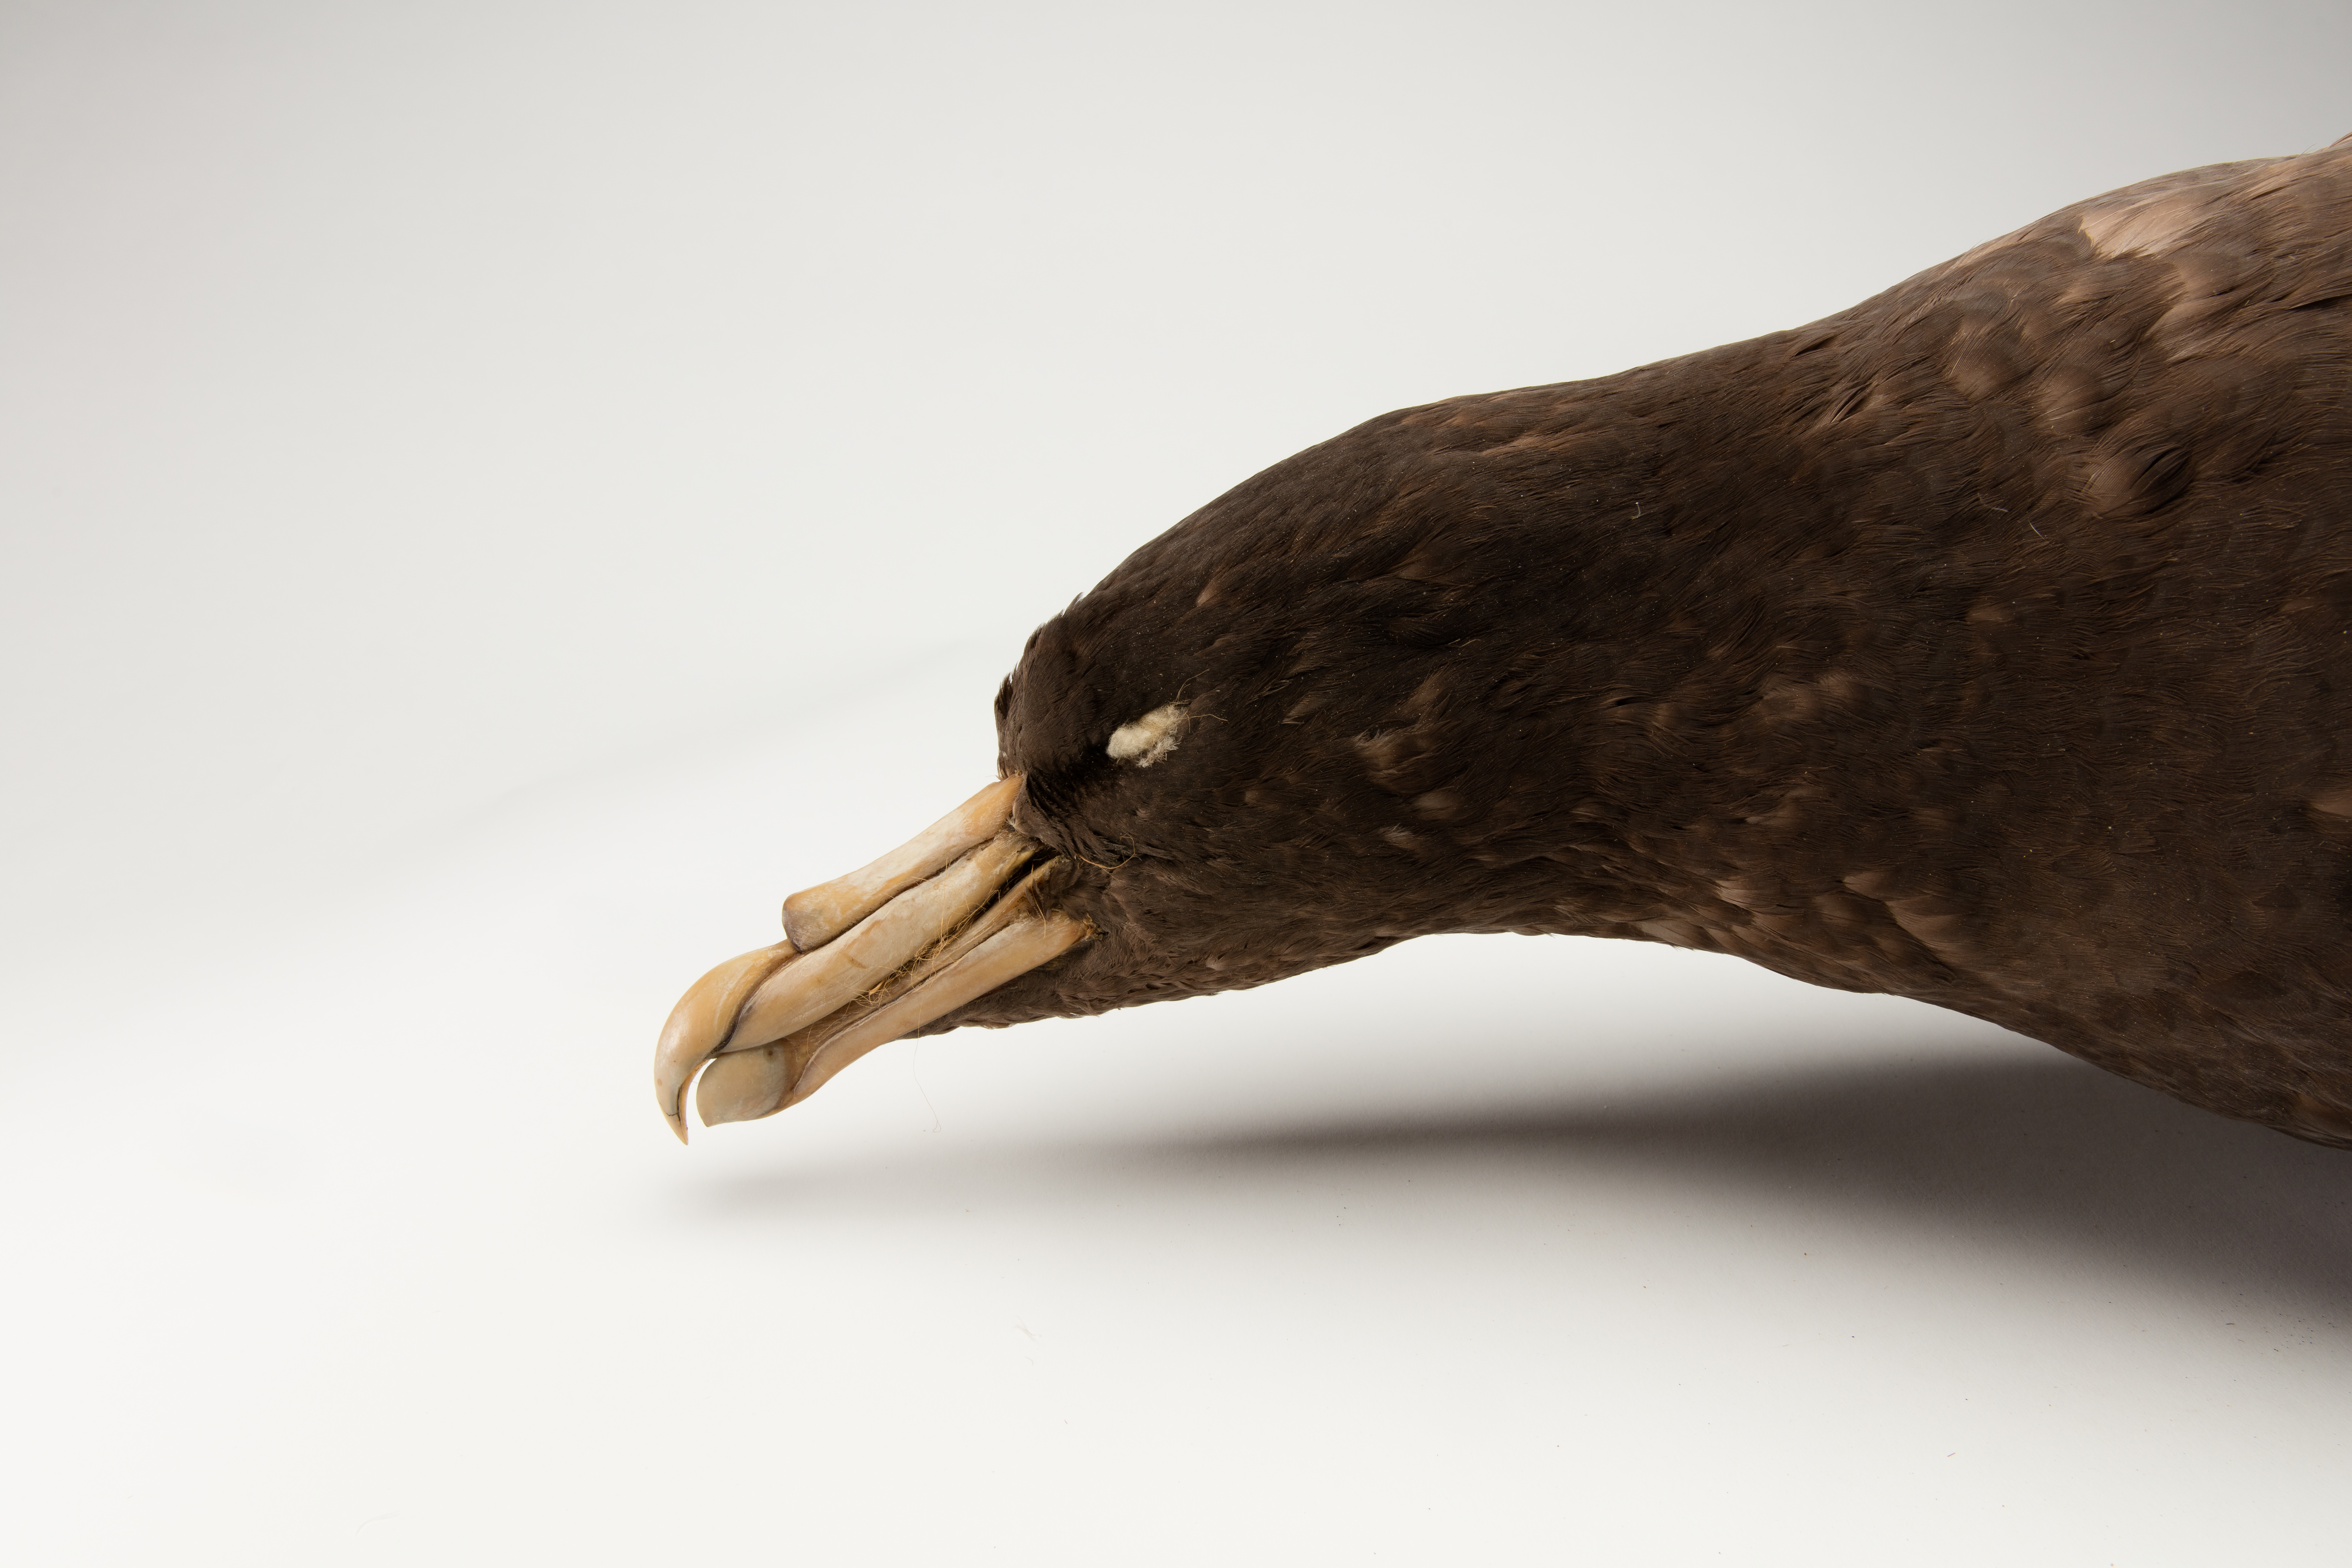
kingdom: Animalia
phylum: Chordata
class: Aves
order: Procellariiformes
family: Procellariidae
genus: Macronectes
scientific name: Macronectes giganteus
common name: Southern giant petrel
